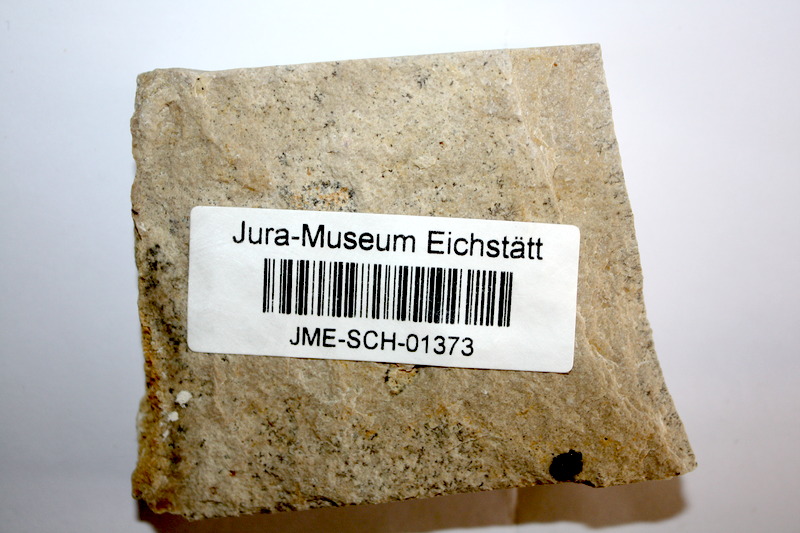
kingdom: Animalia
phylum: Chordata
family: Ascalaboidae
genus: Tharsis
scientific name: Tharsis dubius
